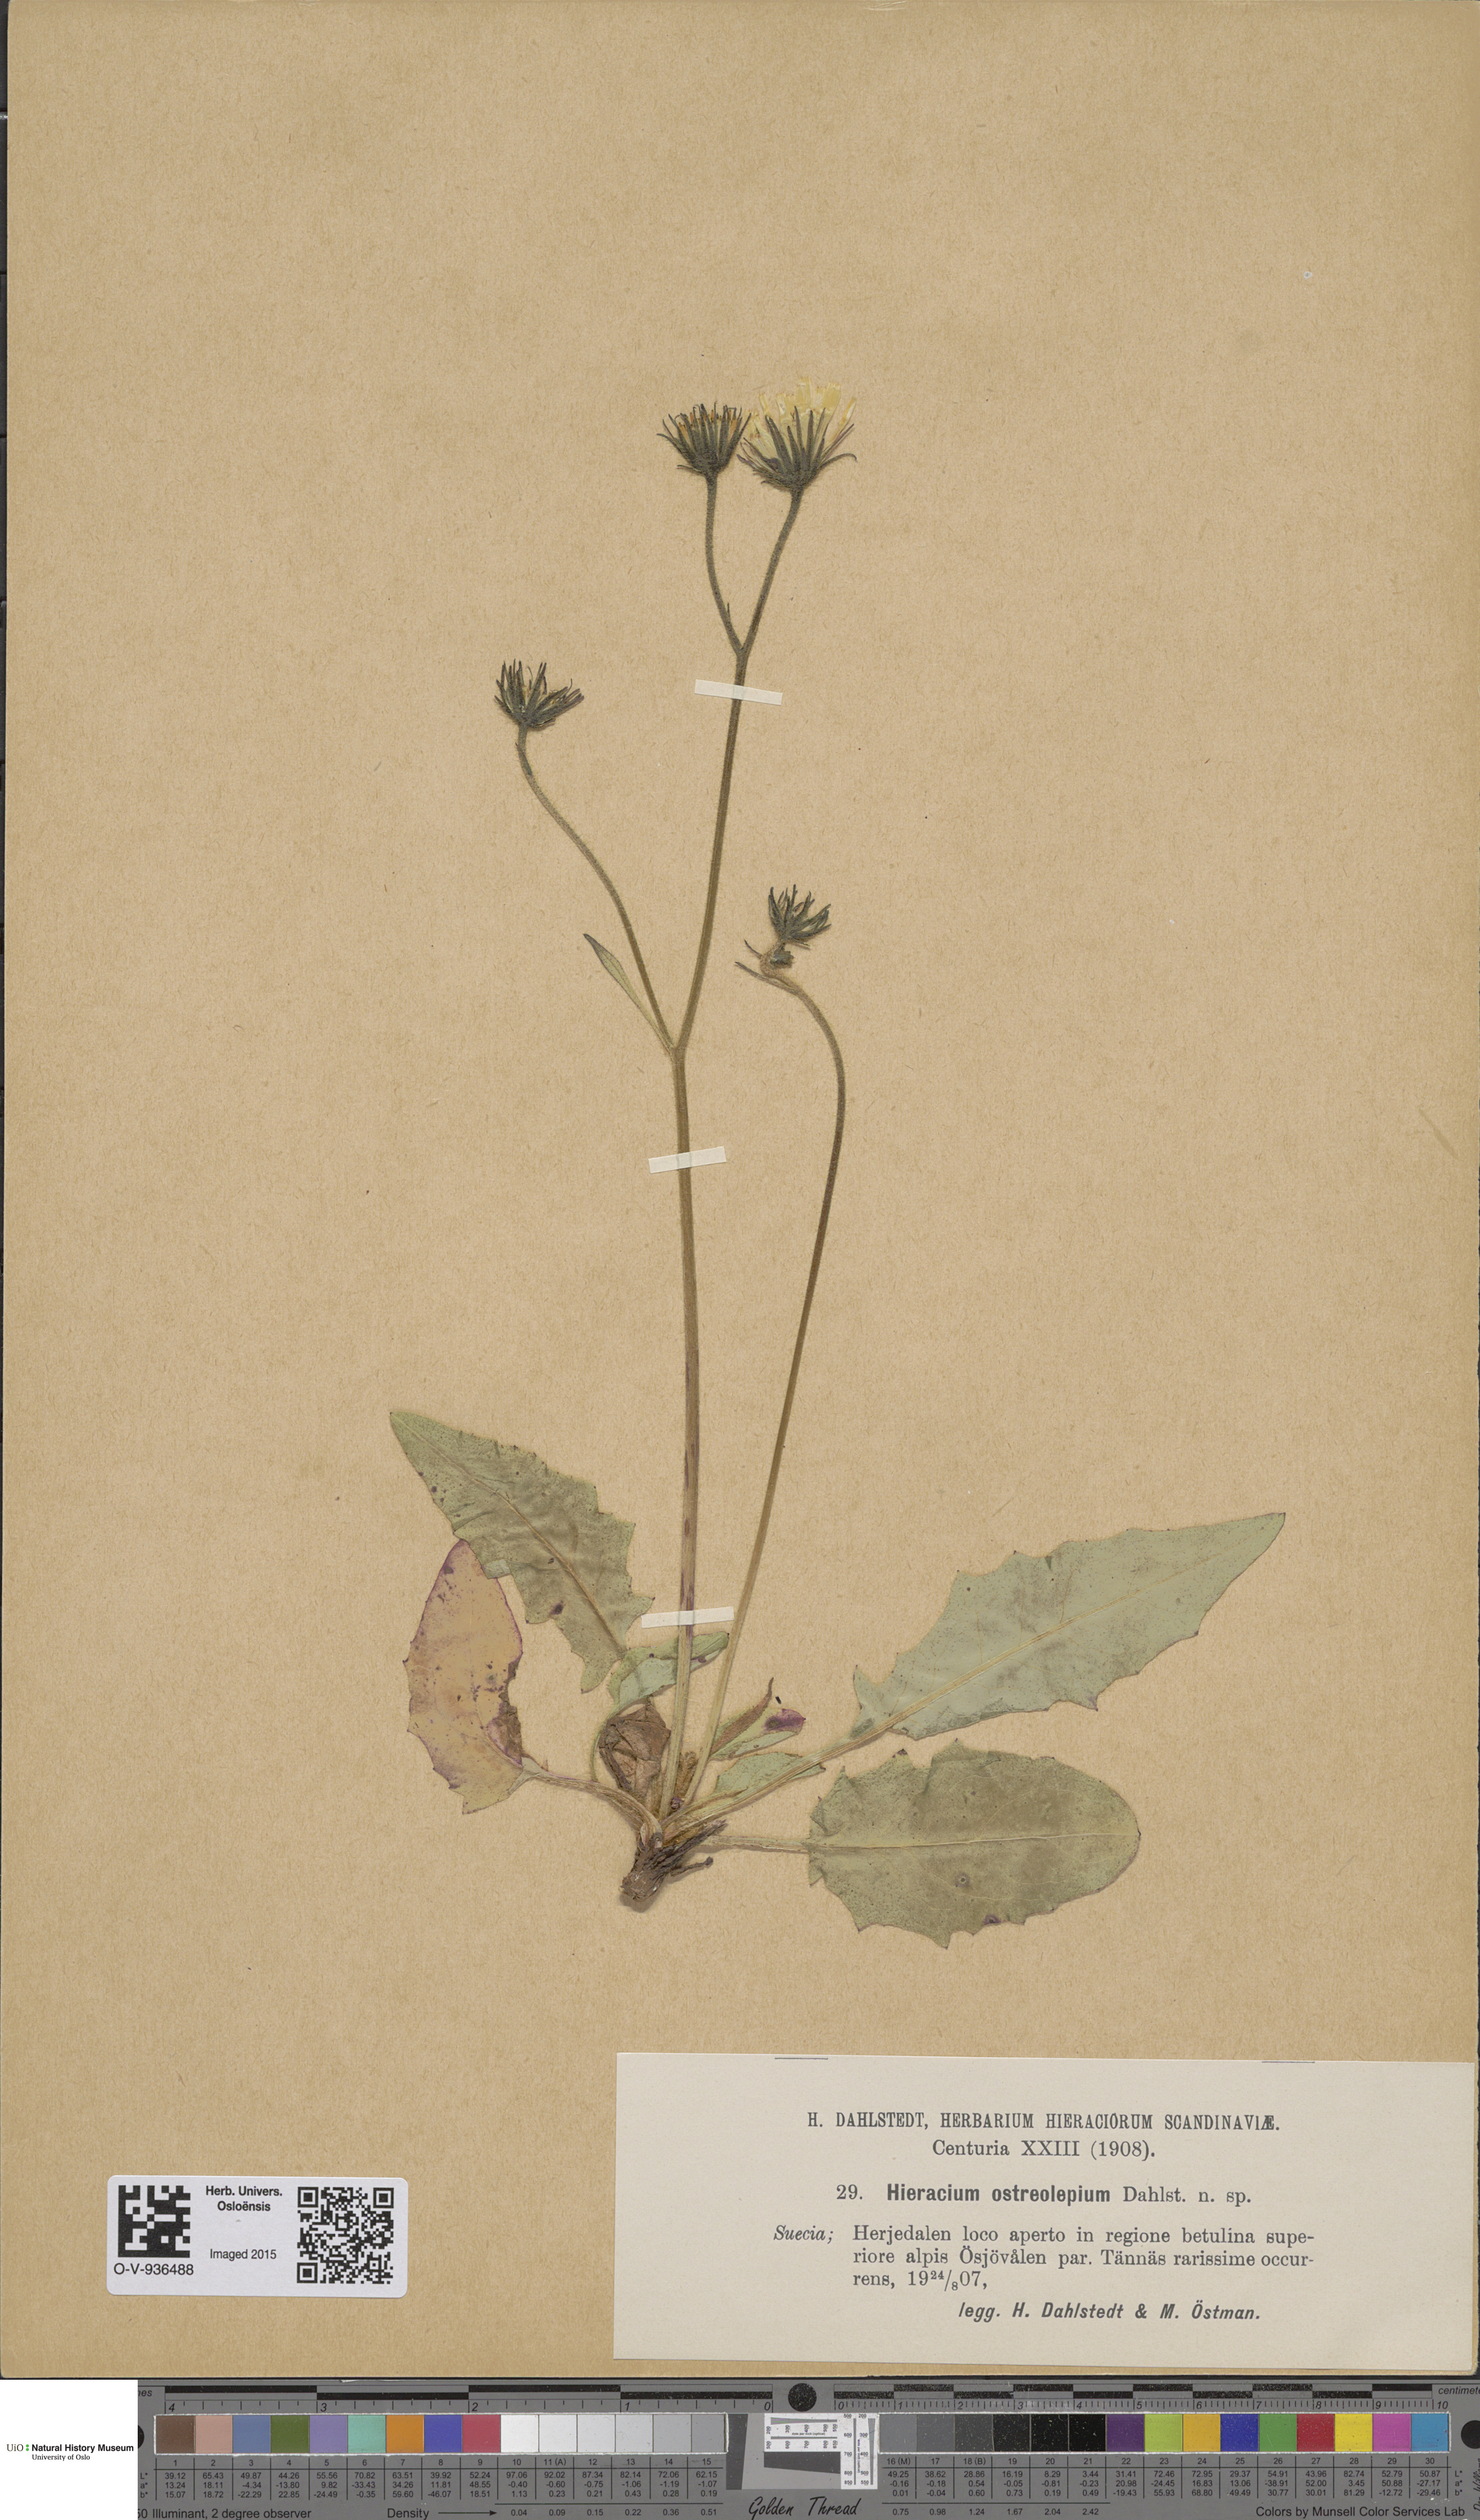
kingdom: Plantae
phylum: Tracheophyta
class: Magnoliopsida
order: Asterales
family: Asteraceae
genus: Hieracium
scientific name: Hieracium
